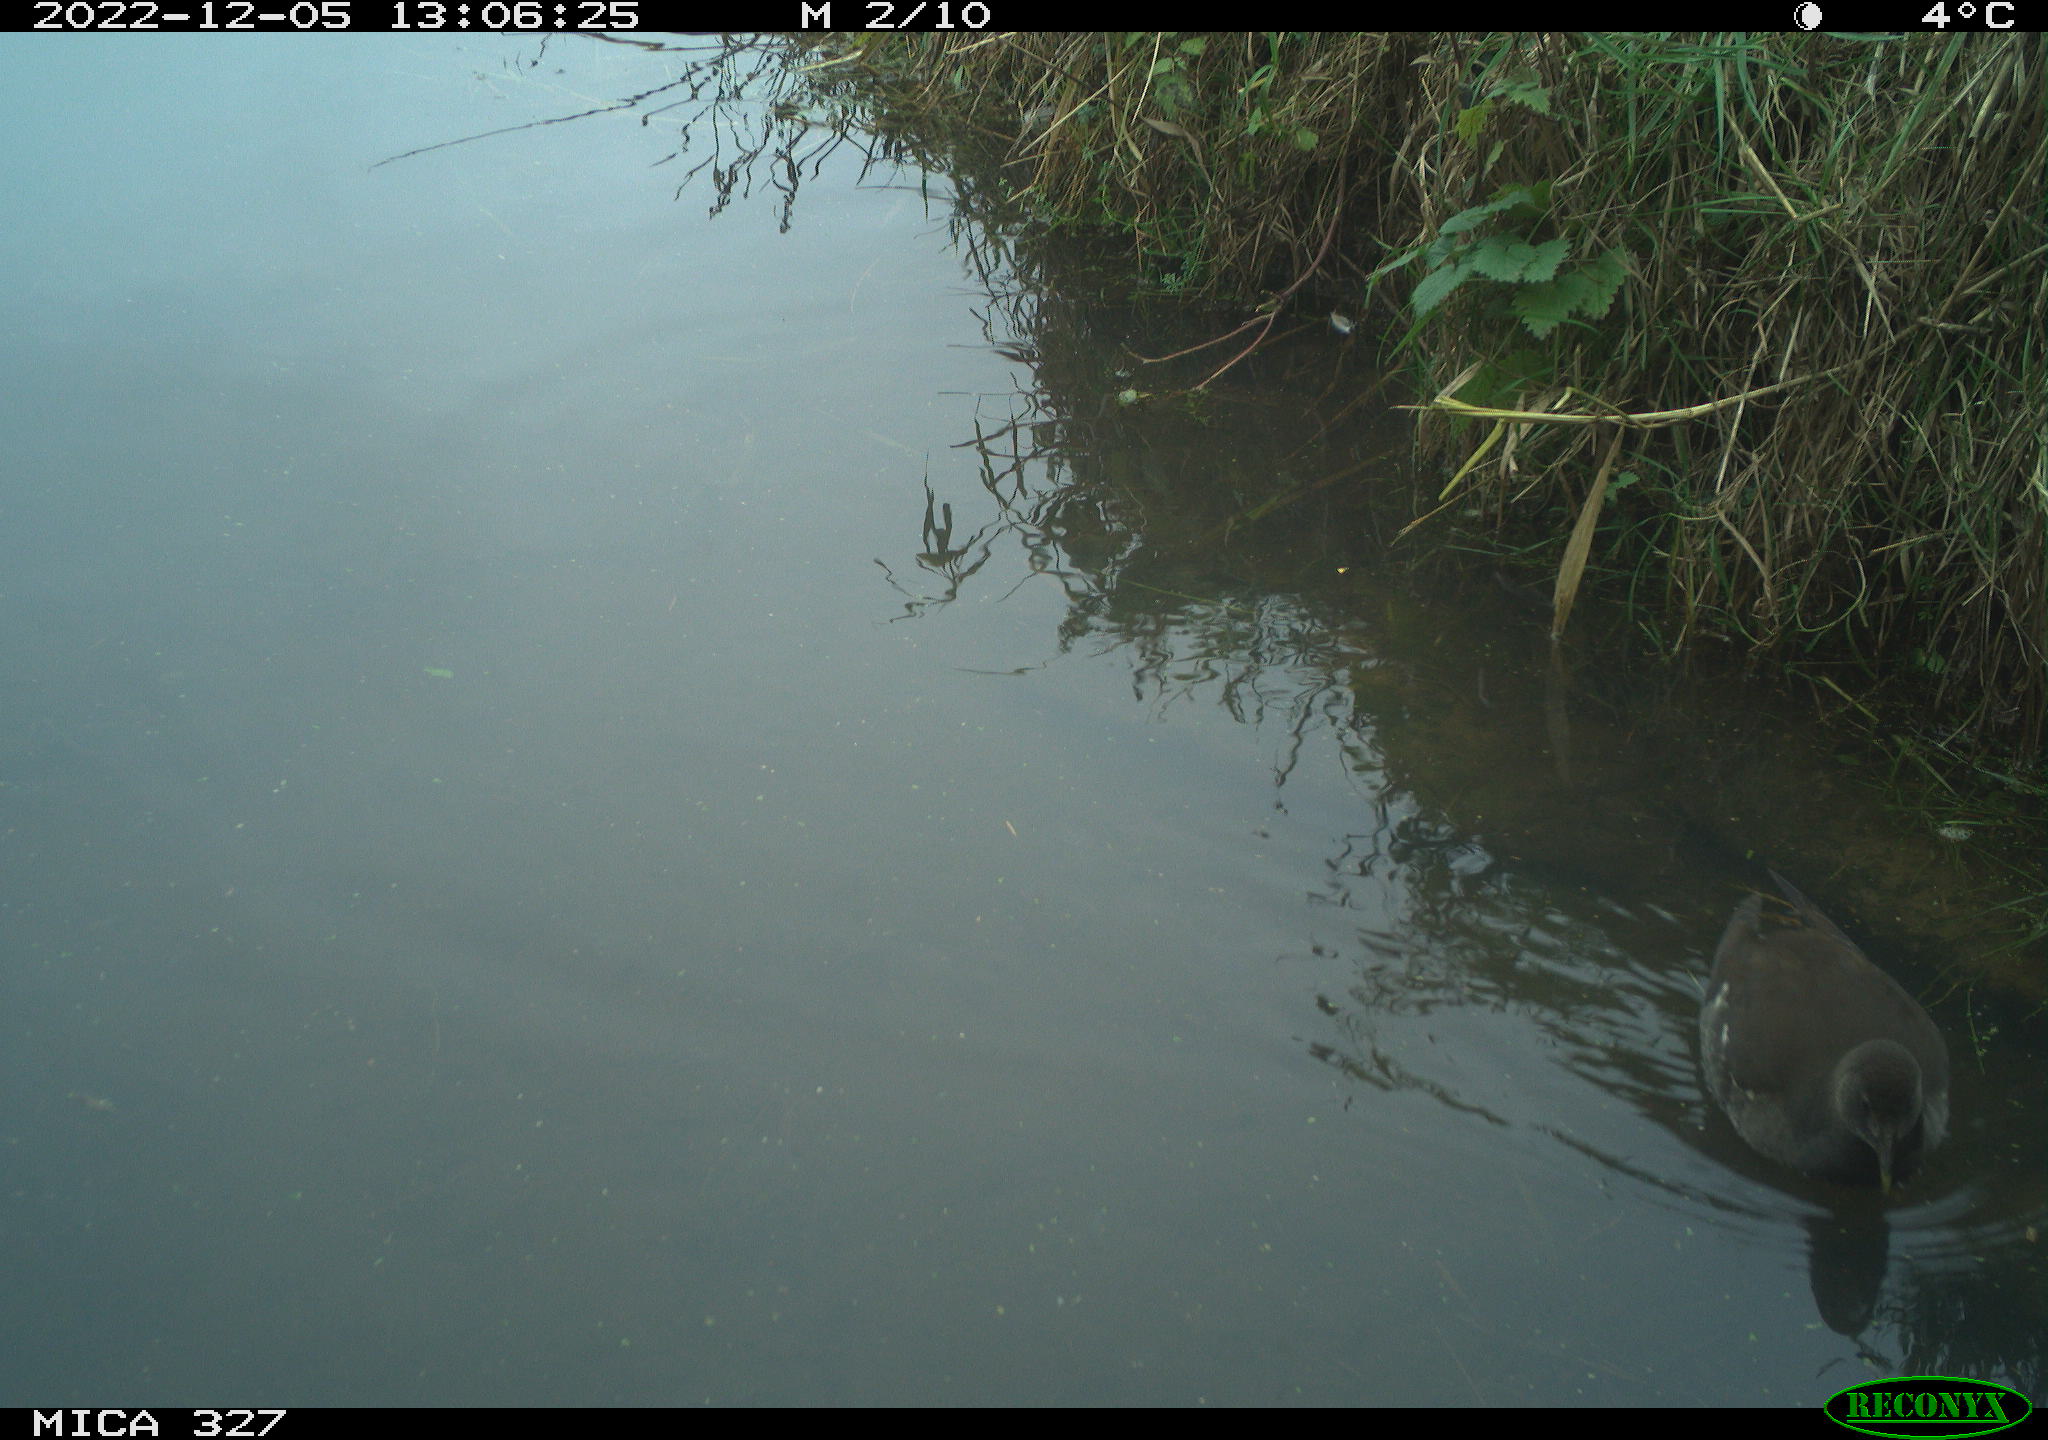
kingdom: Animalia
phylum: Chordata
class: Aves
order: Gruiformes
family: Rallidae
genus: Gallinula
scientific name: Gallinula chloropus
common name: Common moorhen
